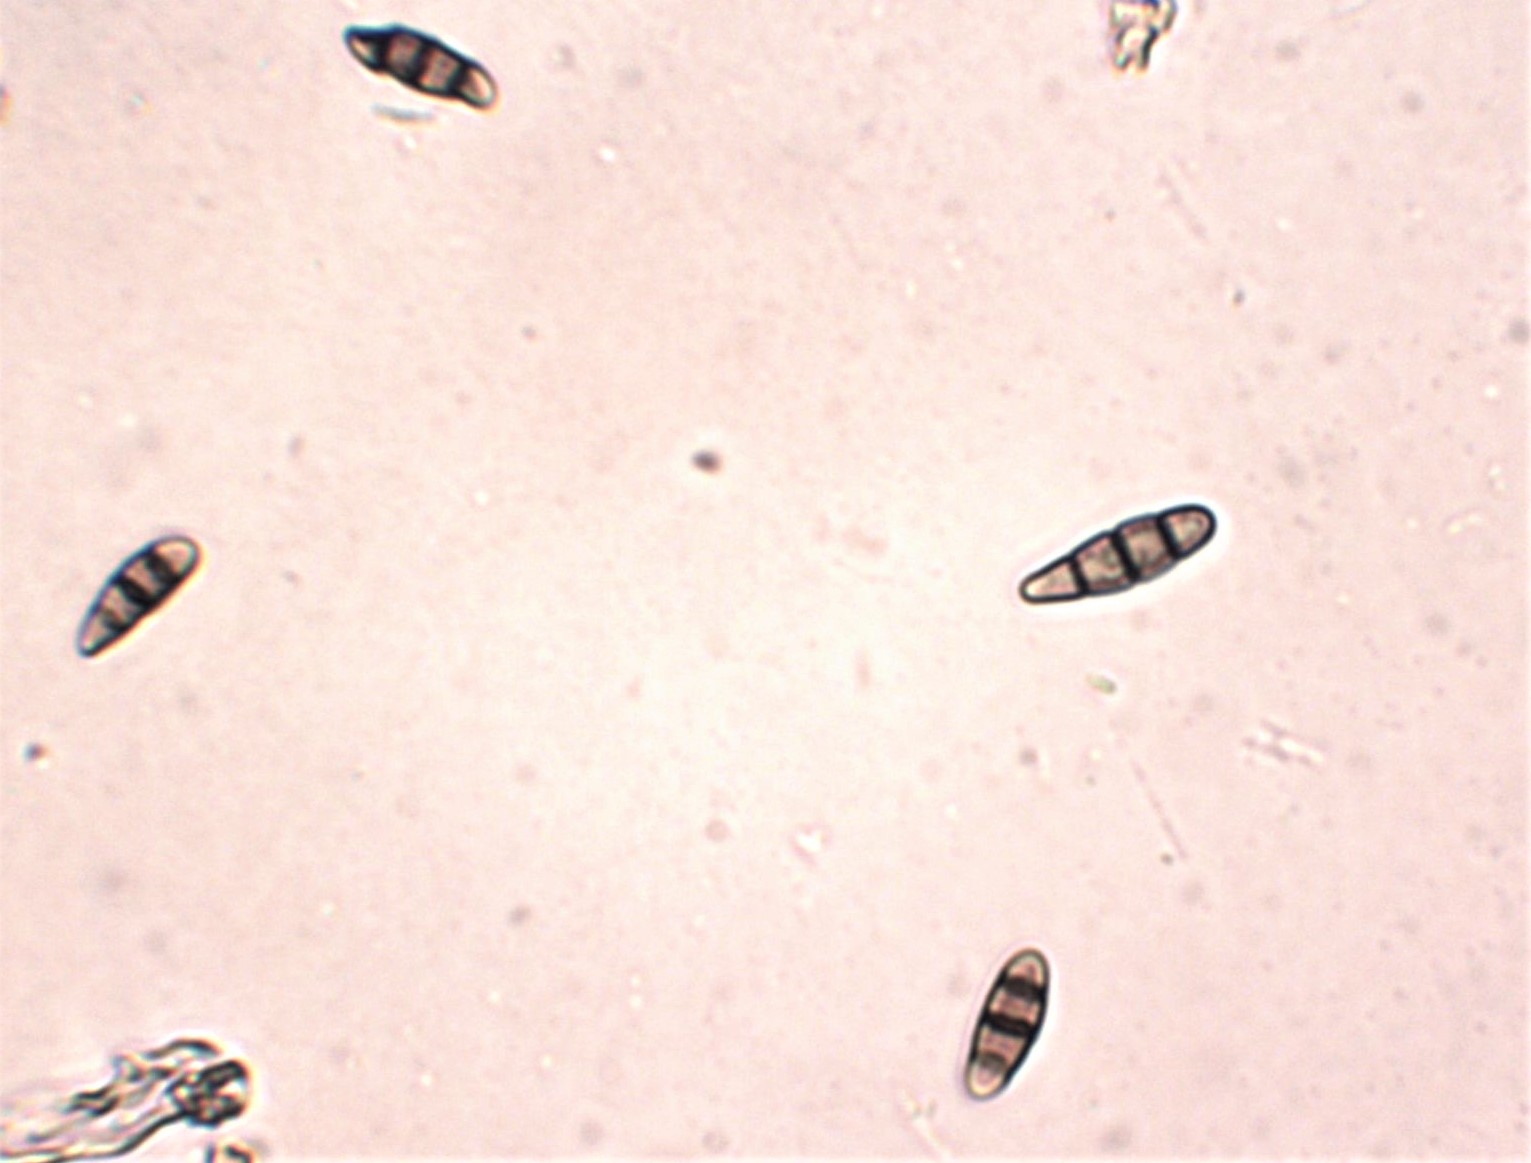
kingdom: Fungi
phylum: Ascomycota
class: Dothideomycetes
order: Hysteriales
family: Hysteriaceae
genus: Hysterium
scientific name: Hysterium acuminatum
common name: almindelig kulmund
